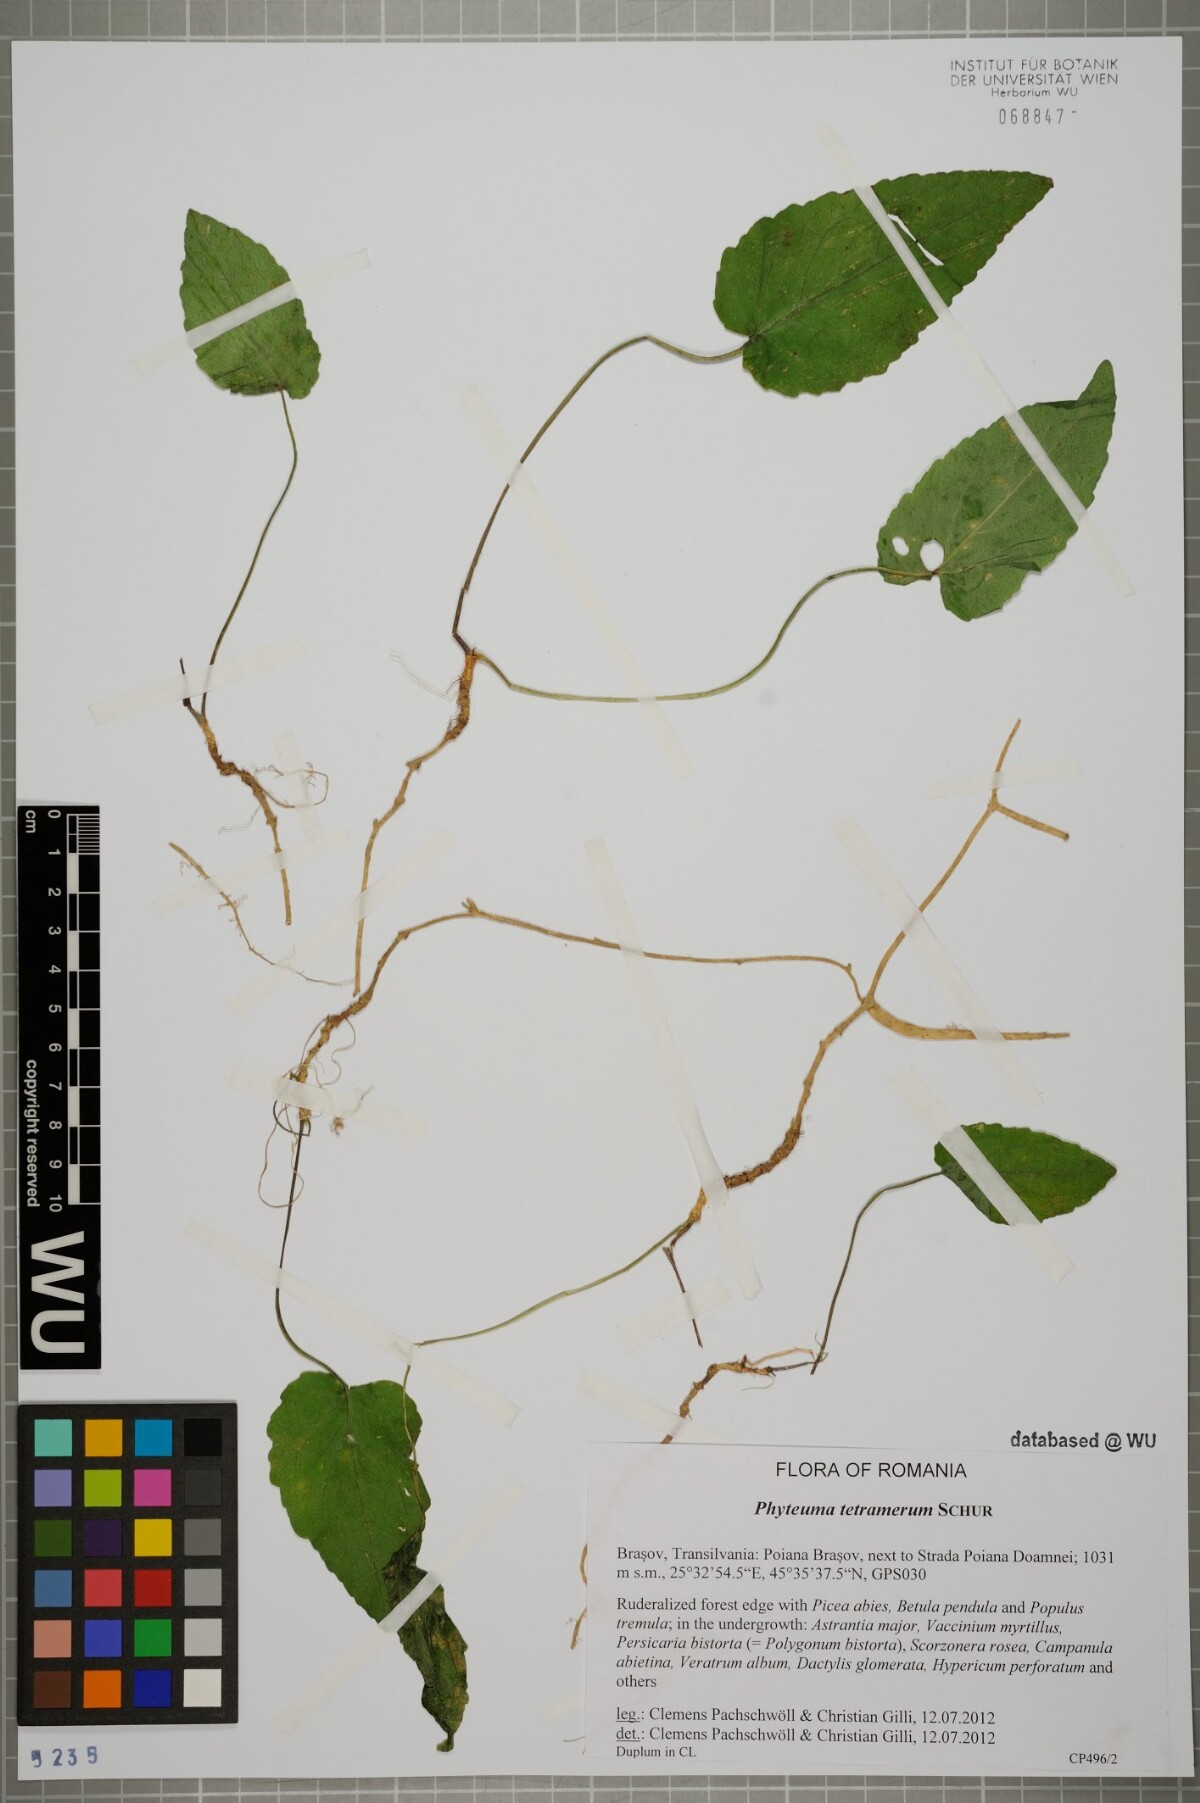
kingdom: Plantae
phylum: Tracheophyta
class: Magnoliopsida
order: Asterales
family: Campanulaceae
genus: Phyteuma
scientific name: Phyteuma tetramerum
